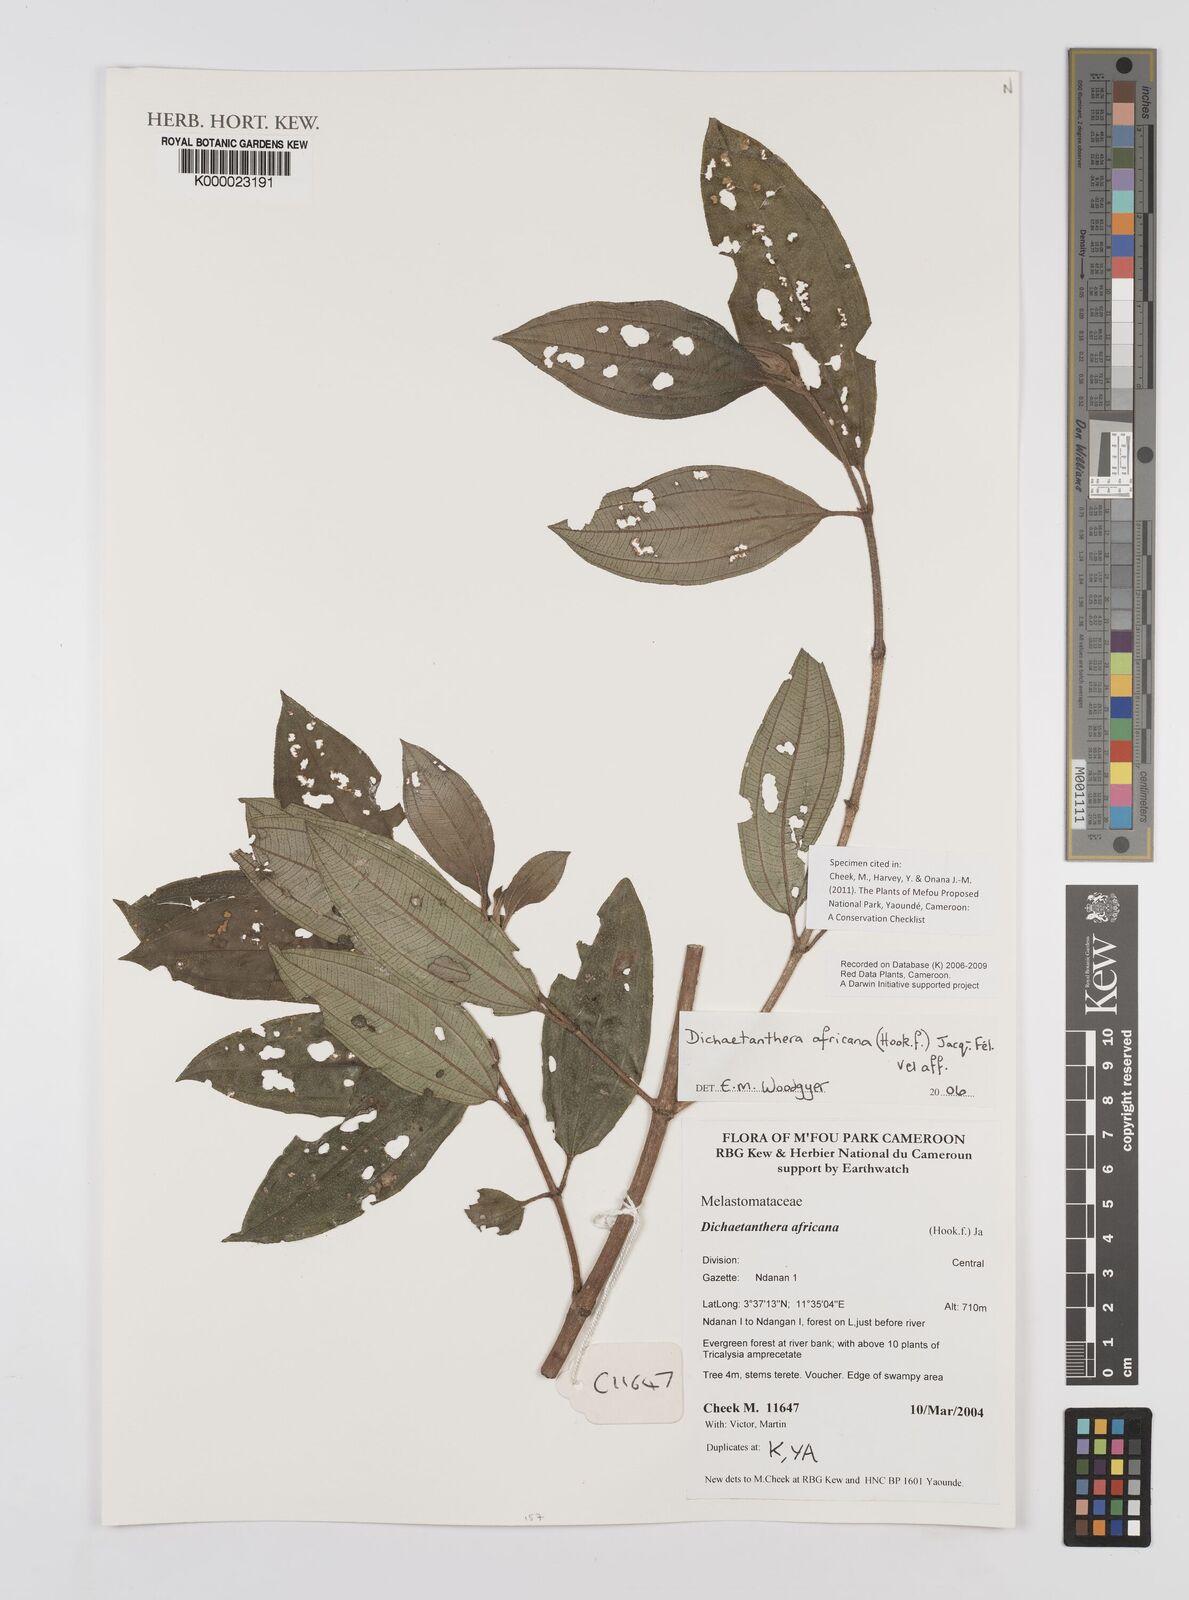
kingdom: Plantae
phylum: Tracheophyta
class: Magnoliopsida
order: Myrtales
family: Melastomataceae
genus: Dichaetanthera
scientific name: Dichaetanthera
